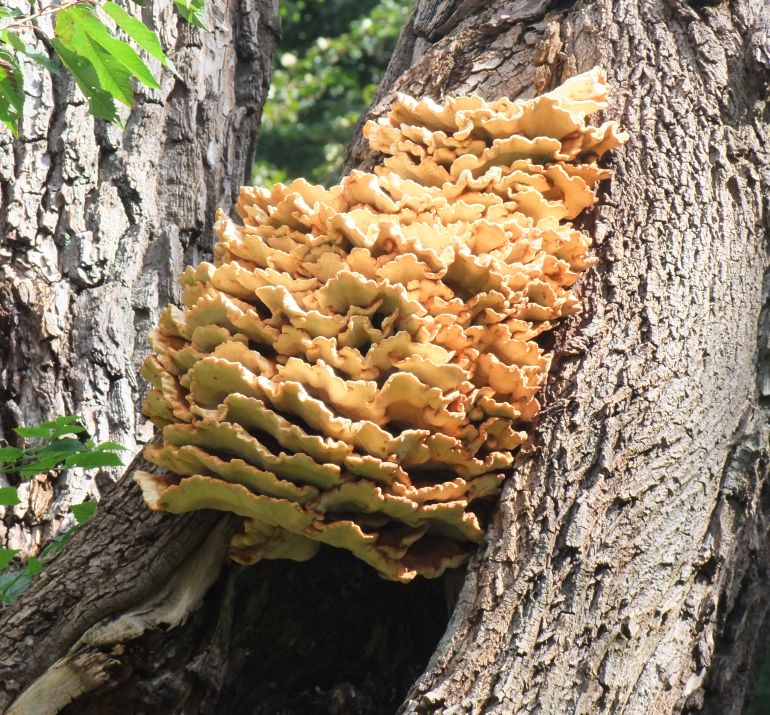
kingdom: Fungi
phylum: Basidiomycota
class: Agaricomycetes
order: Polyporales
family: Laetiporaceae
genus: Laetiporus
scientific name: Laetiporus sulphureus
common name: svovlporesvamp
